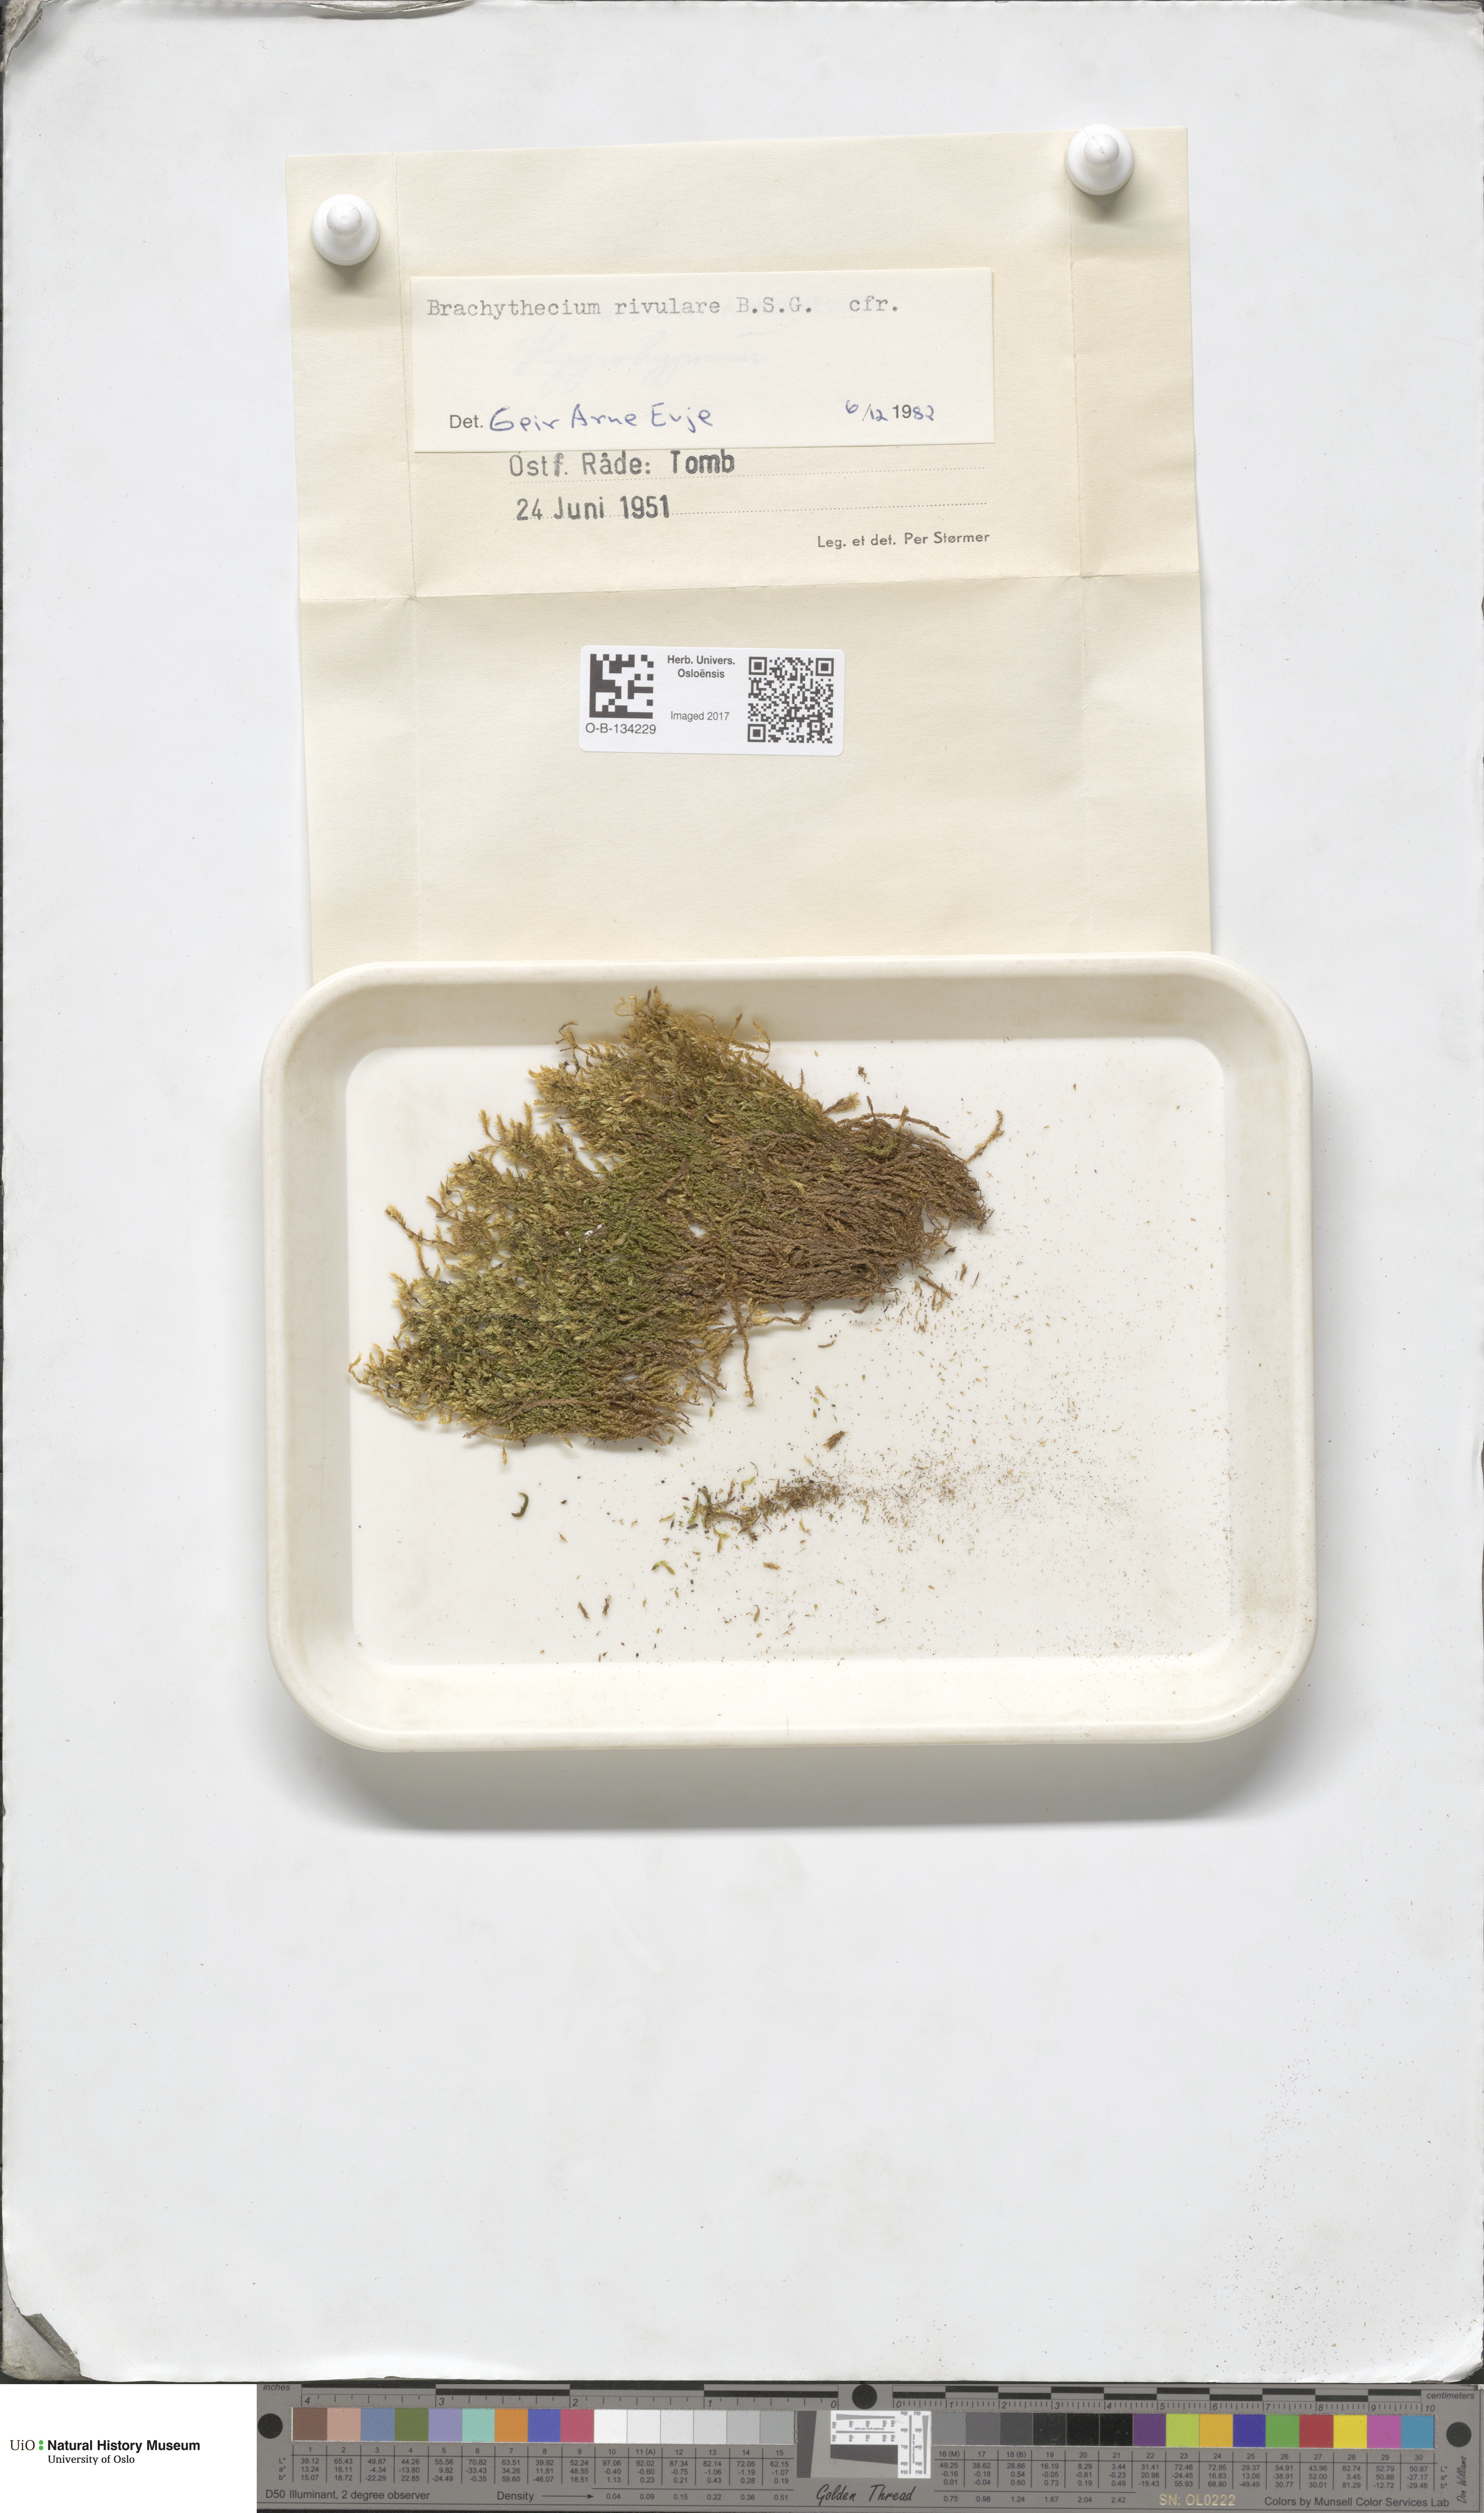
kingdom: Plantae
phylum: Bryophyta
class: Bryopsida
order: Hypnales
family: Brachytheciaceae
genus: Brachythecium
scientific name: Brachythecium rivulare
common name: River ragged moss
